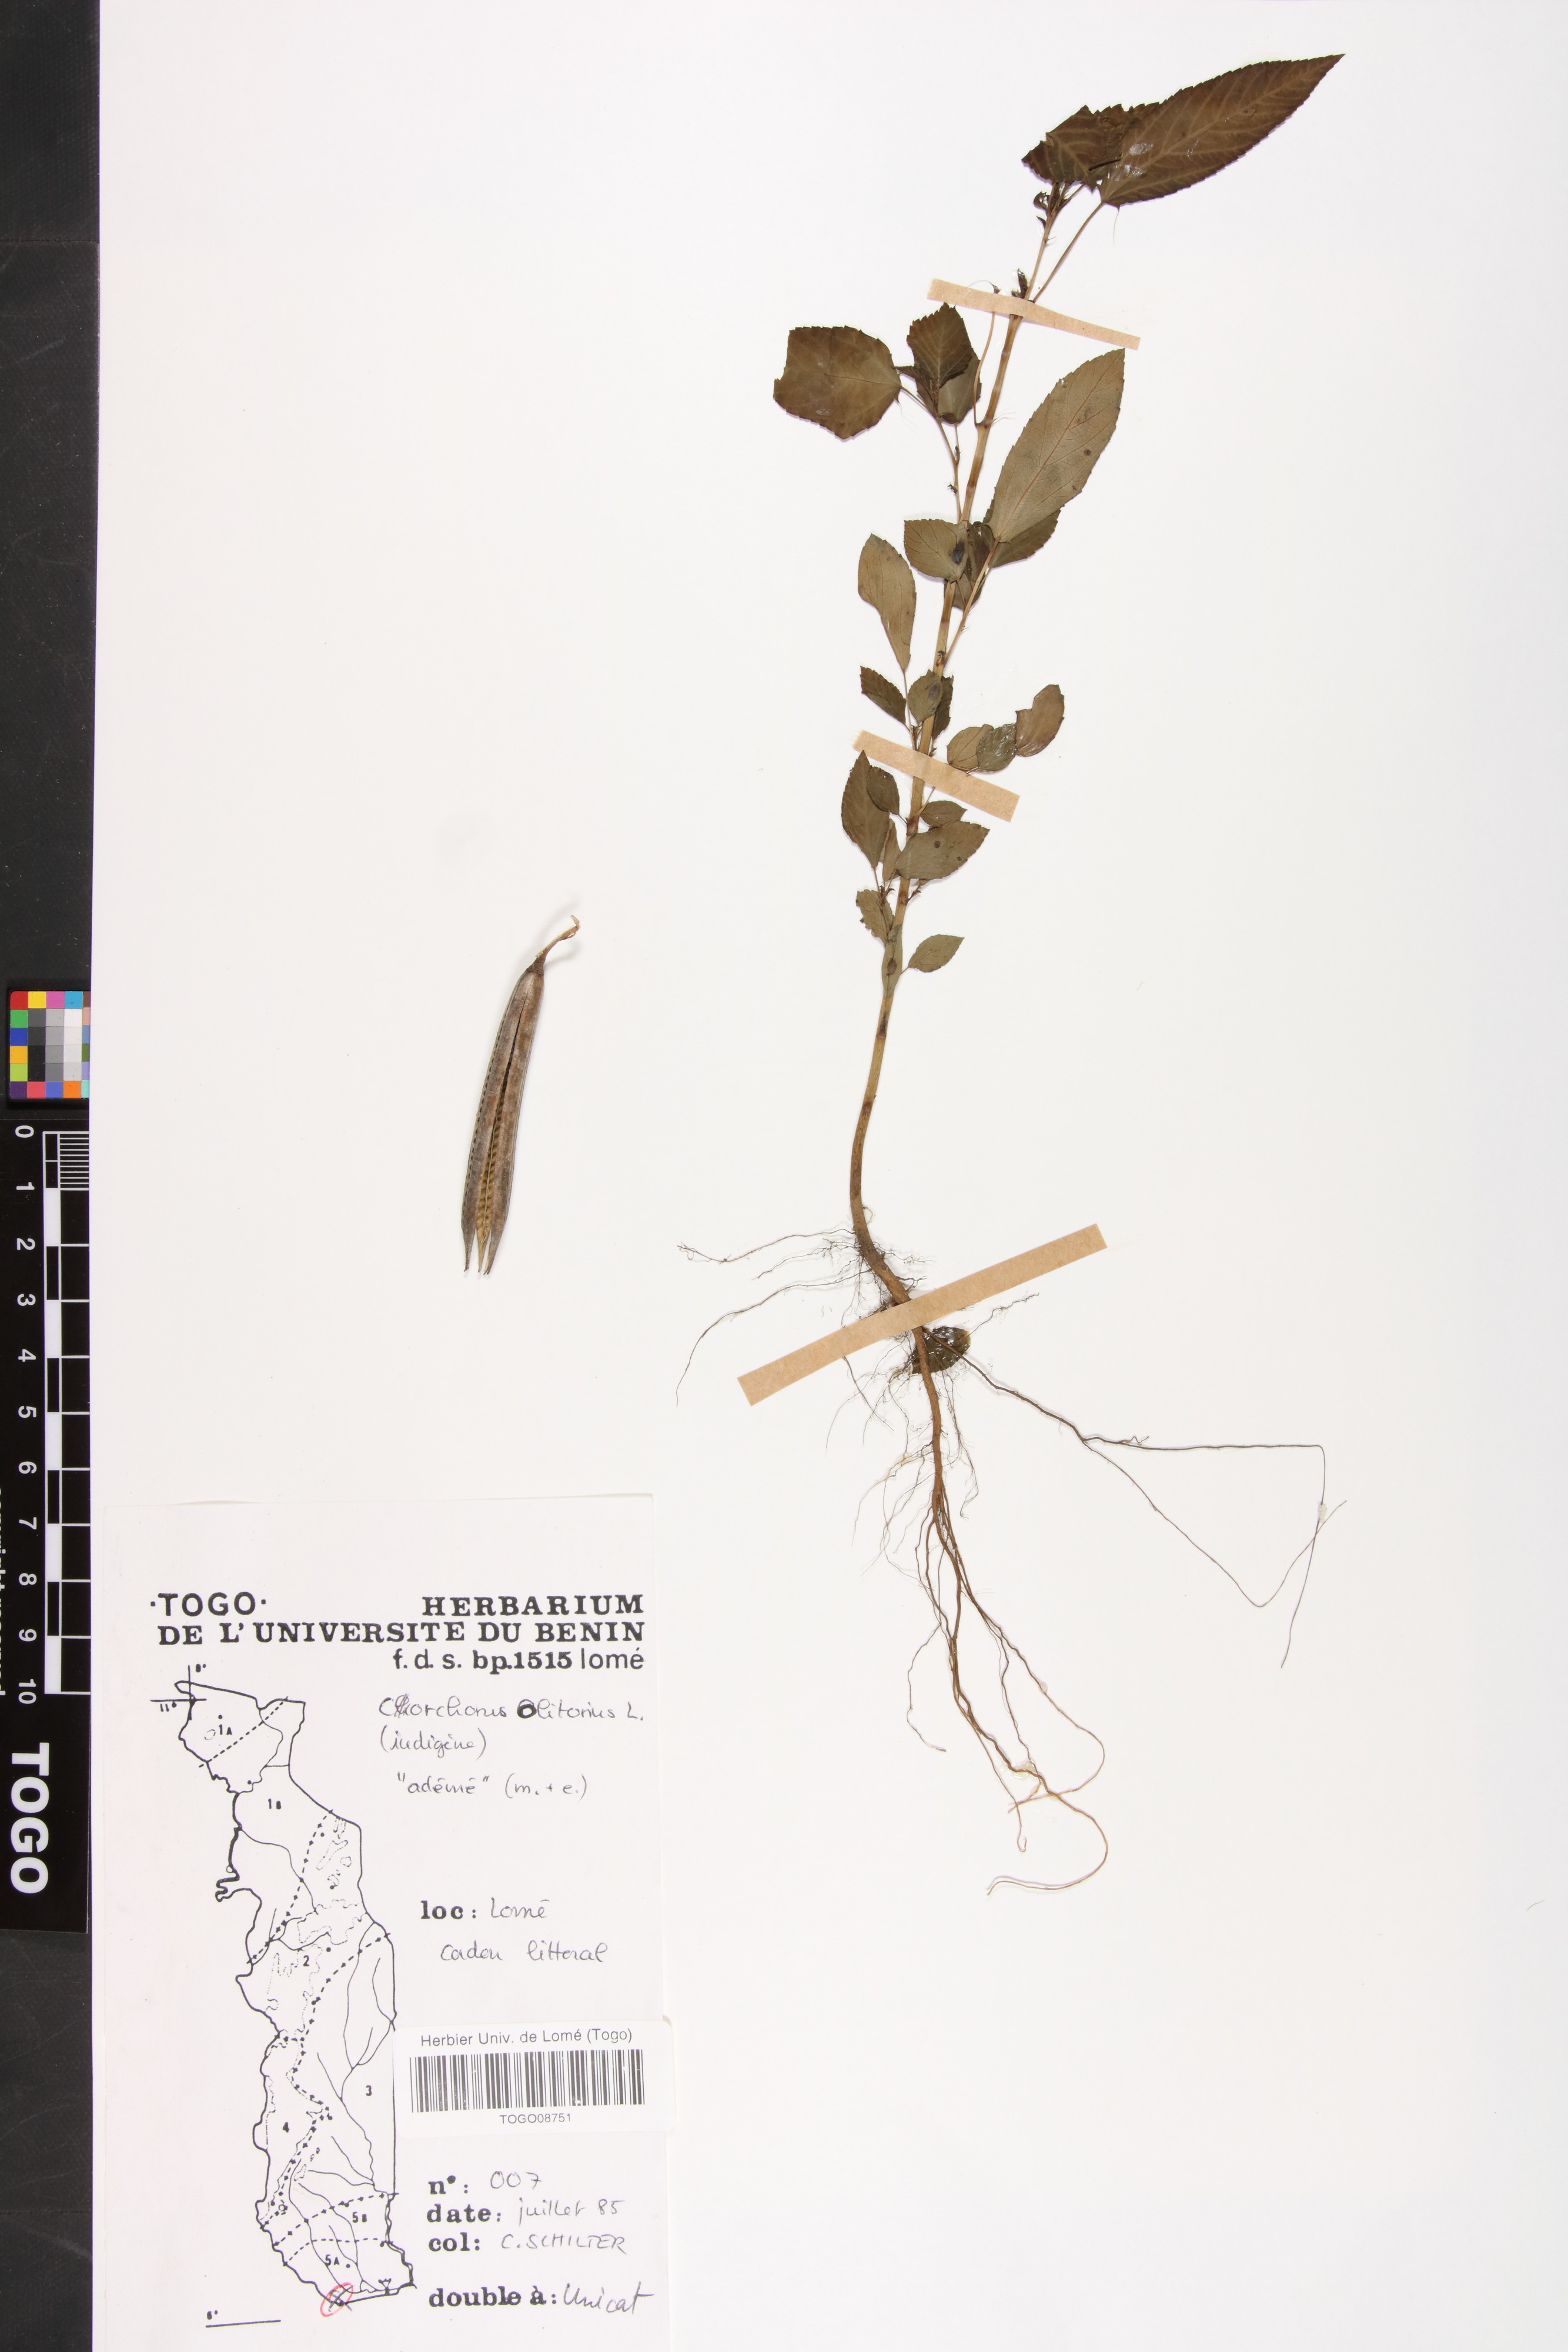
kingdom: Plantae
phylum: Tracheophyta
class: Magnoliopsida
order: Malvales
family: Malvaceae
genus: Corchorus
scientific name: Corchorus olitorius
